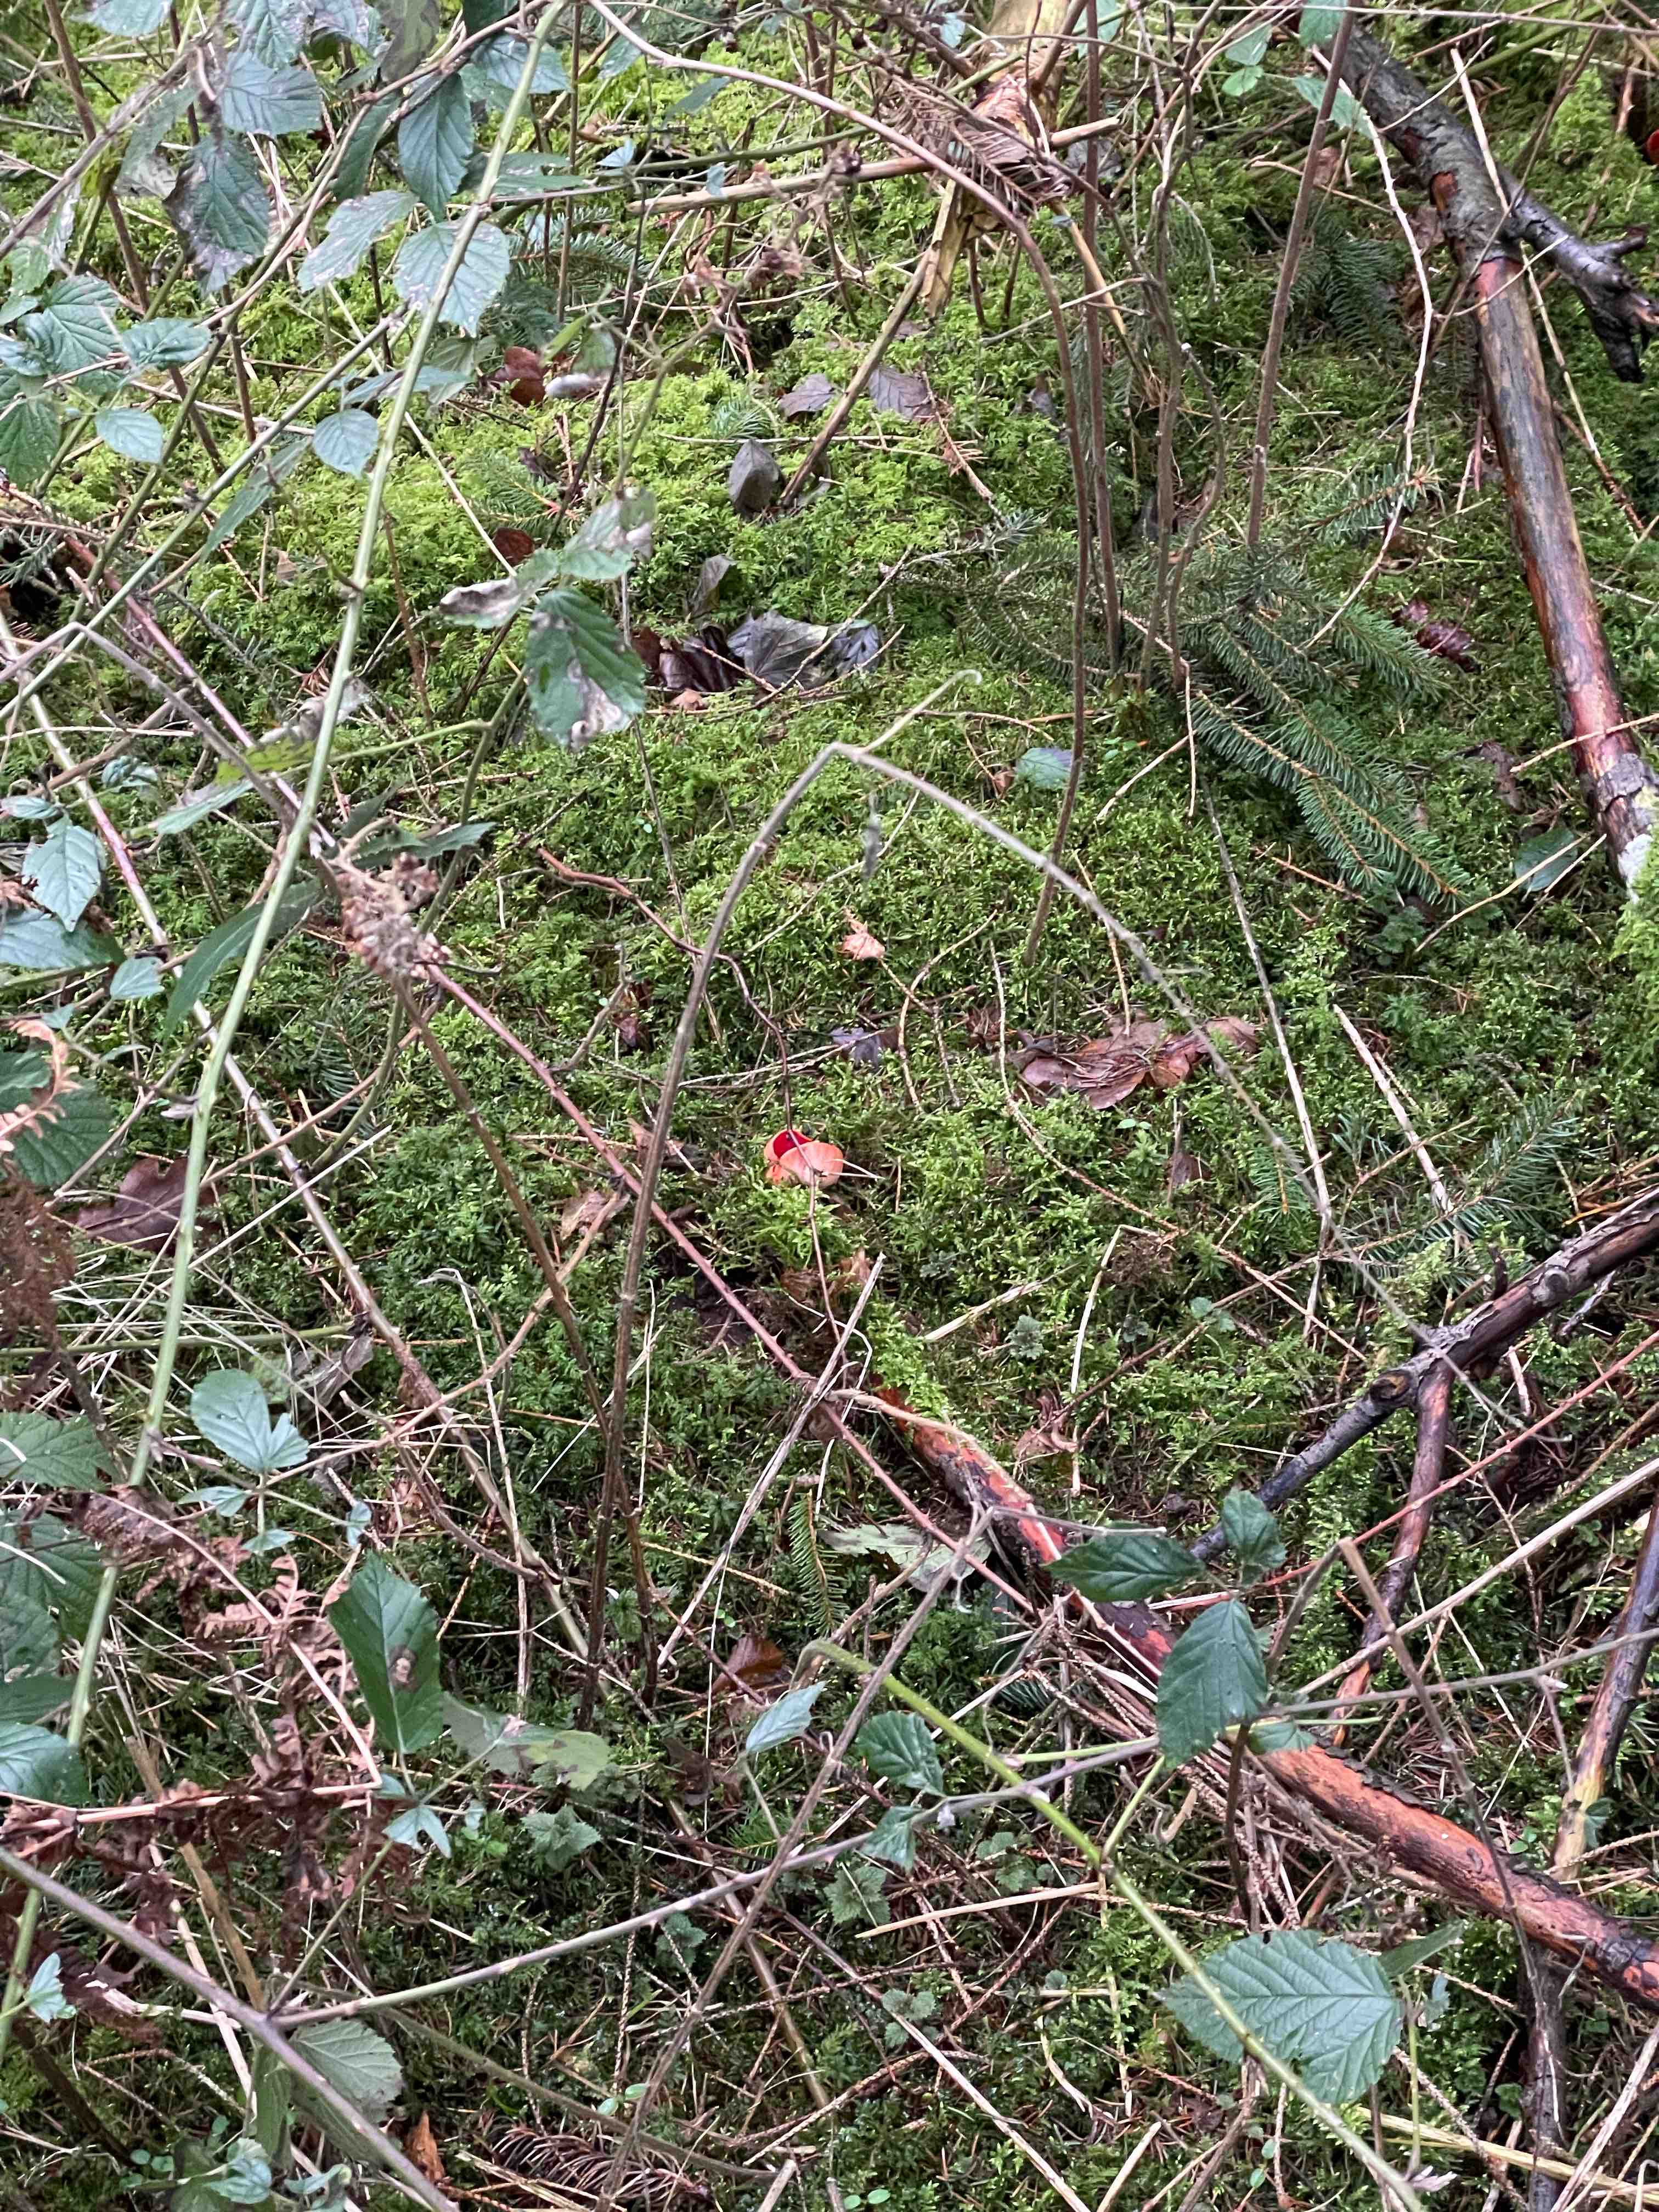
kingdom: Fungi
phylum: Ascomycota
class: Pezizomycetes
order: Pezizales
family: Sarcoscyphaceae
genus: Sarcoscypha
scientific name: Sarcoscypha austriaca
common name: krølhåret pragtbæger
